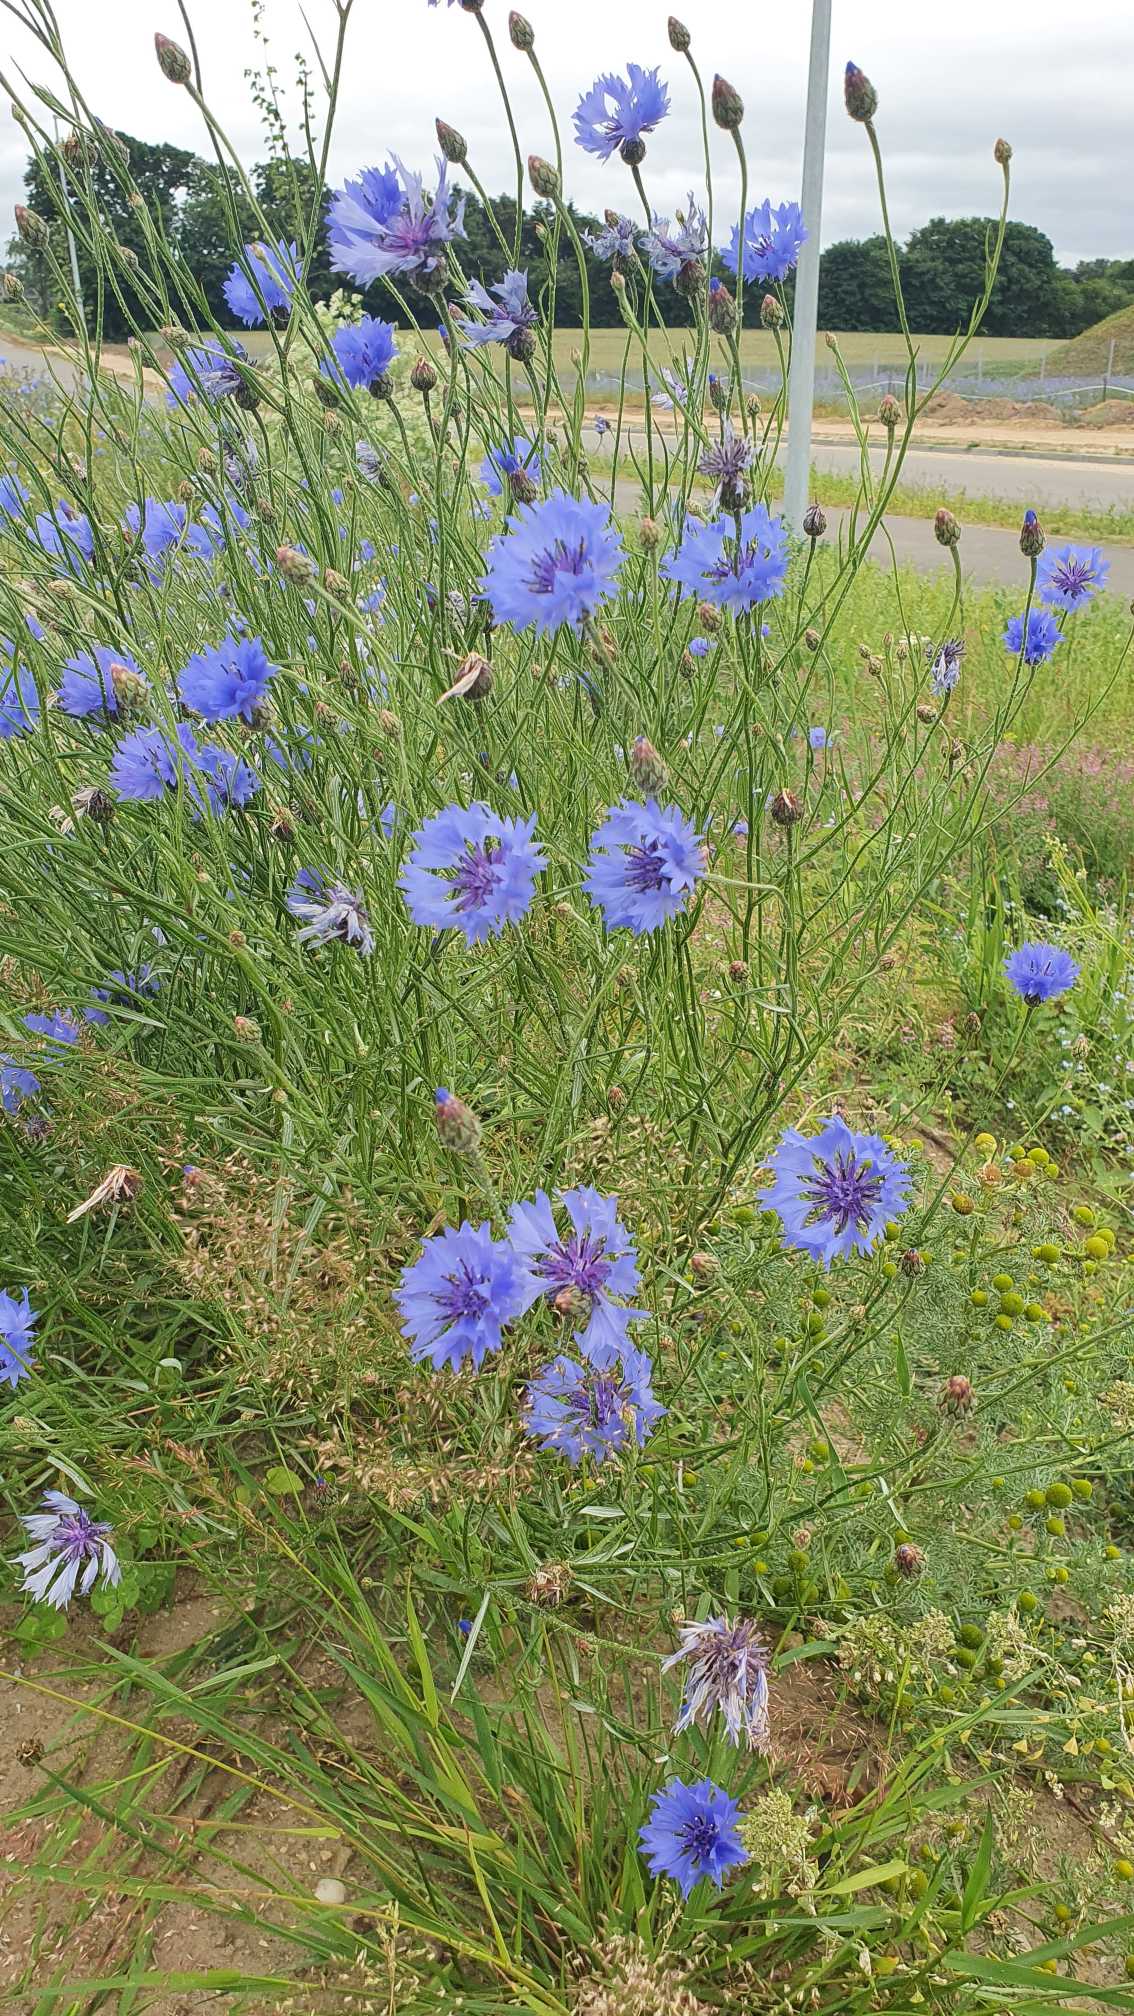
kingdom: Plantae
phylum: Tracheophyta
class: Magnoliopsida
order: Asterales
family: Asteraceae
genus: Centaurea
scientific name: Centaurea cyanus
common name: Kornblomst
